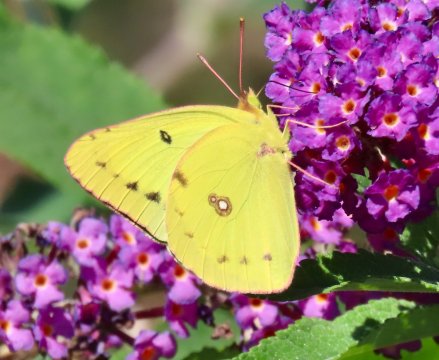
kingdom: Animalia
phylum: Arthropoda
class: Insecta
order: Lepidoptera
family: Pieridae
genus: Colias
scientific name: Colias philodice
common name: Clouded Sulphur
